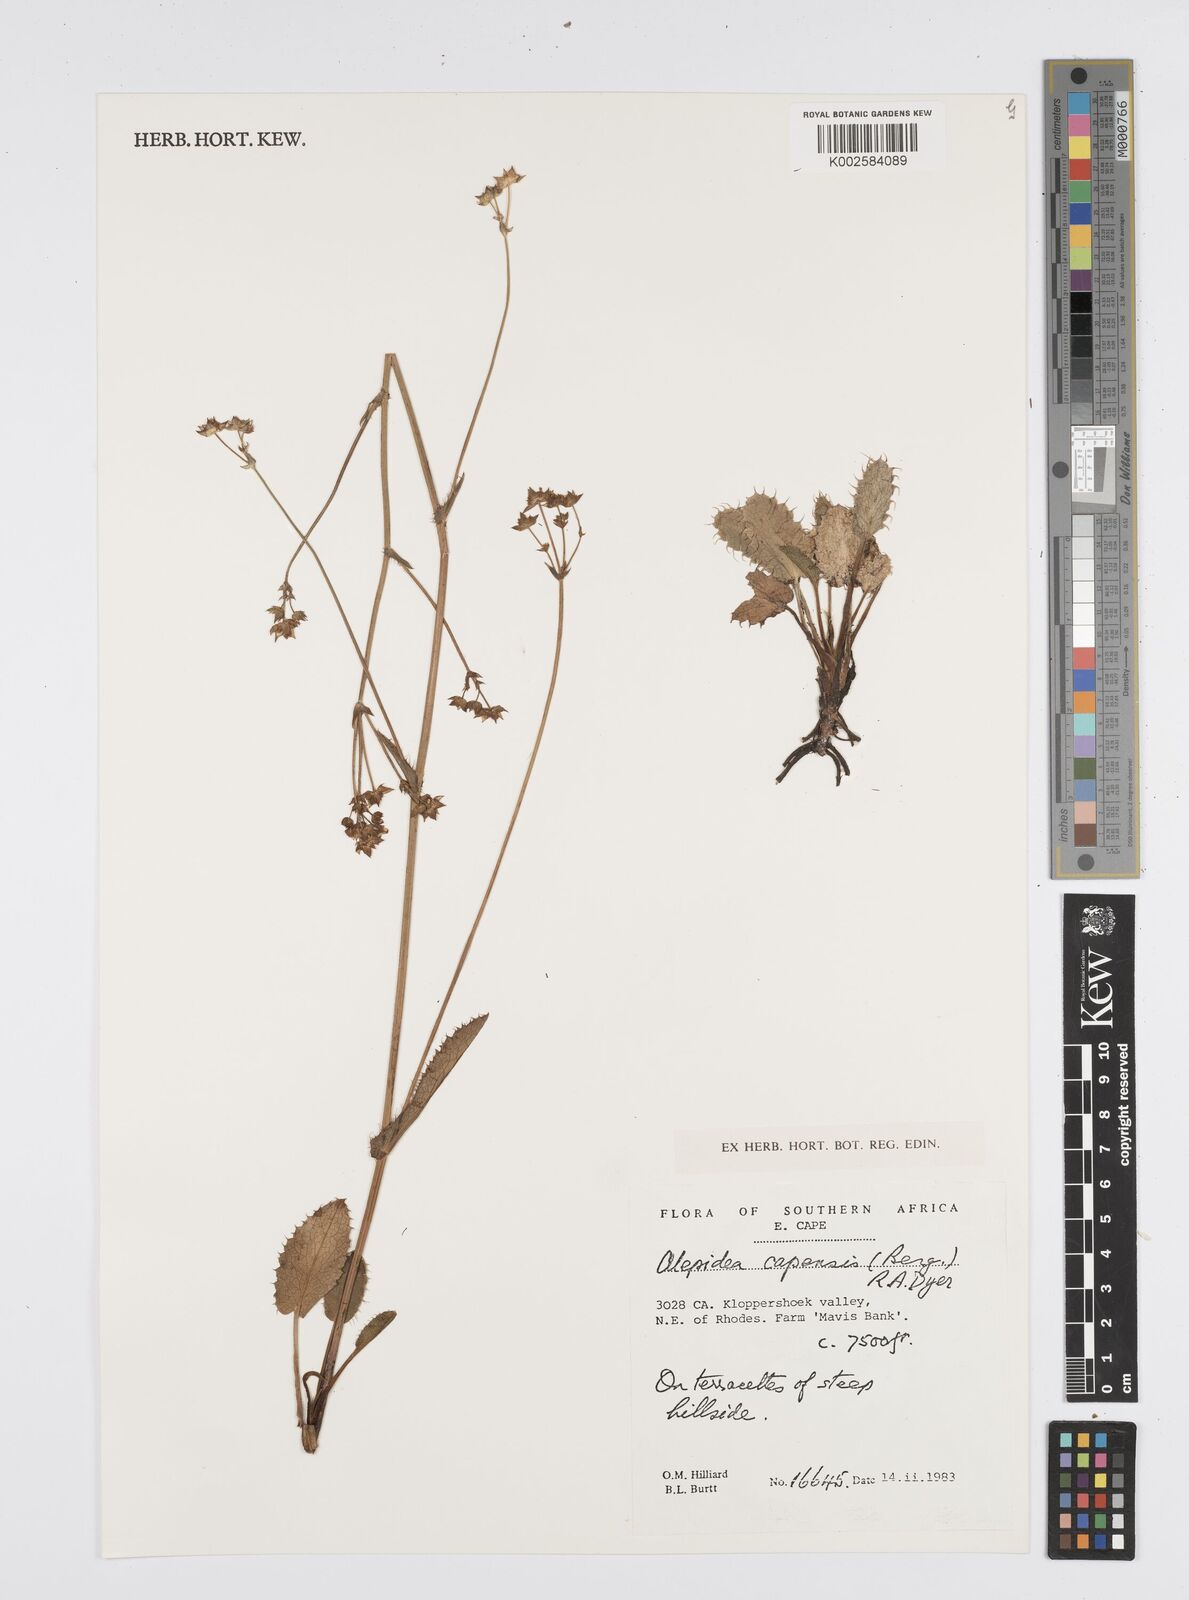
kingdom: Plantae
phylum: Tracheophyta
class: Magnoliopsida
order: Apiales
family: Apiaceae
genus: Alepidea
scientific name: Alepidea capensis
